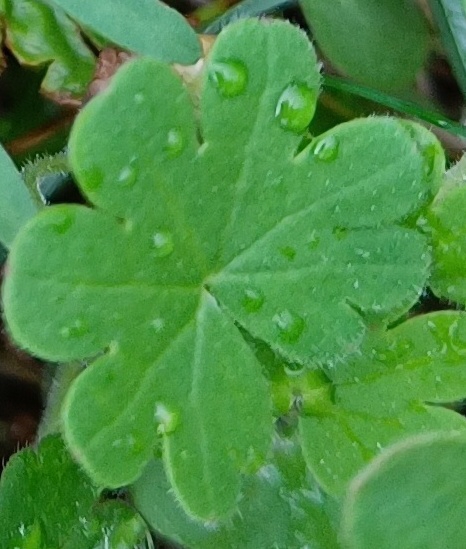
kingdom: Plantae
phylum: Tracheophyta
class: Magnoliopsida
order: Geraniales
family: Geraniaceae
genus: Geranium
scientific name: Geranium
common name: Storkenæbslægten
